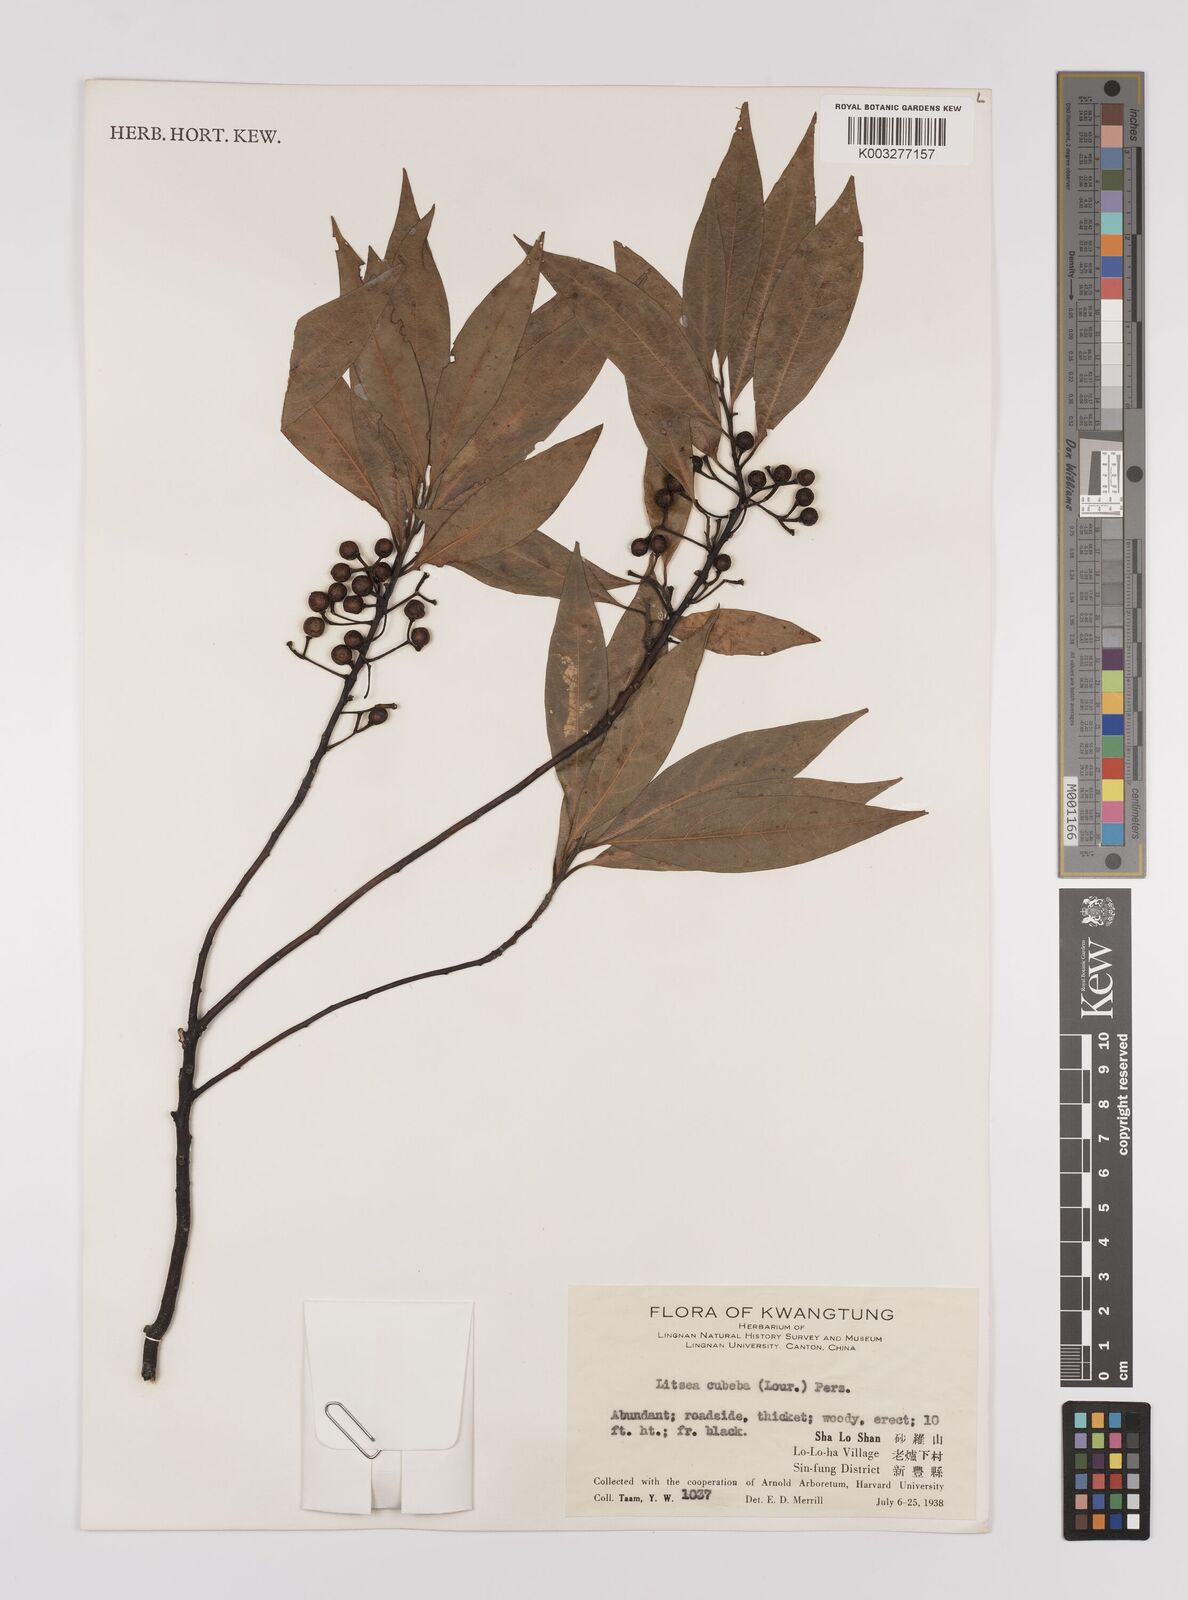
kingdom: Plantae
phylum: Tracheophyta
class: Magnoliopsida
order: Laurales
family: Lauraceae
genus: Litsea
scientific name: Litsea cubeba
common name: Mountain-pepper
